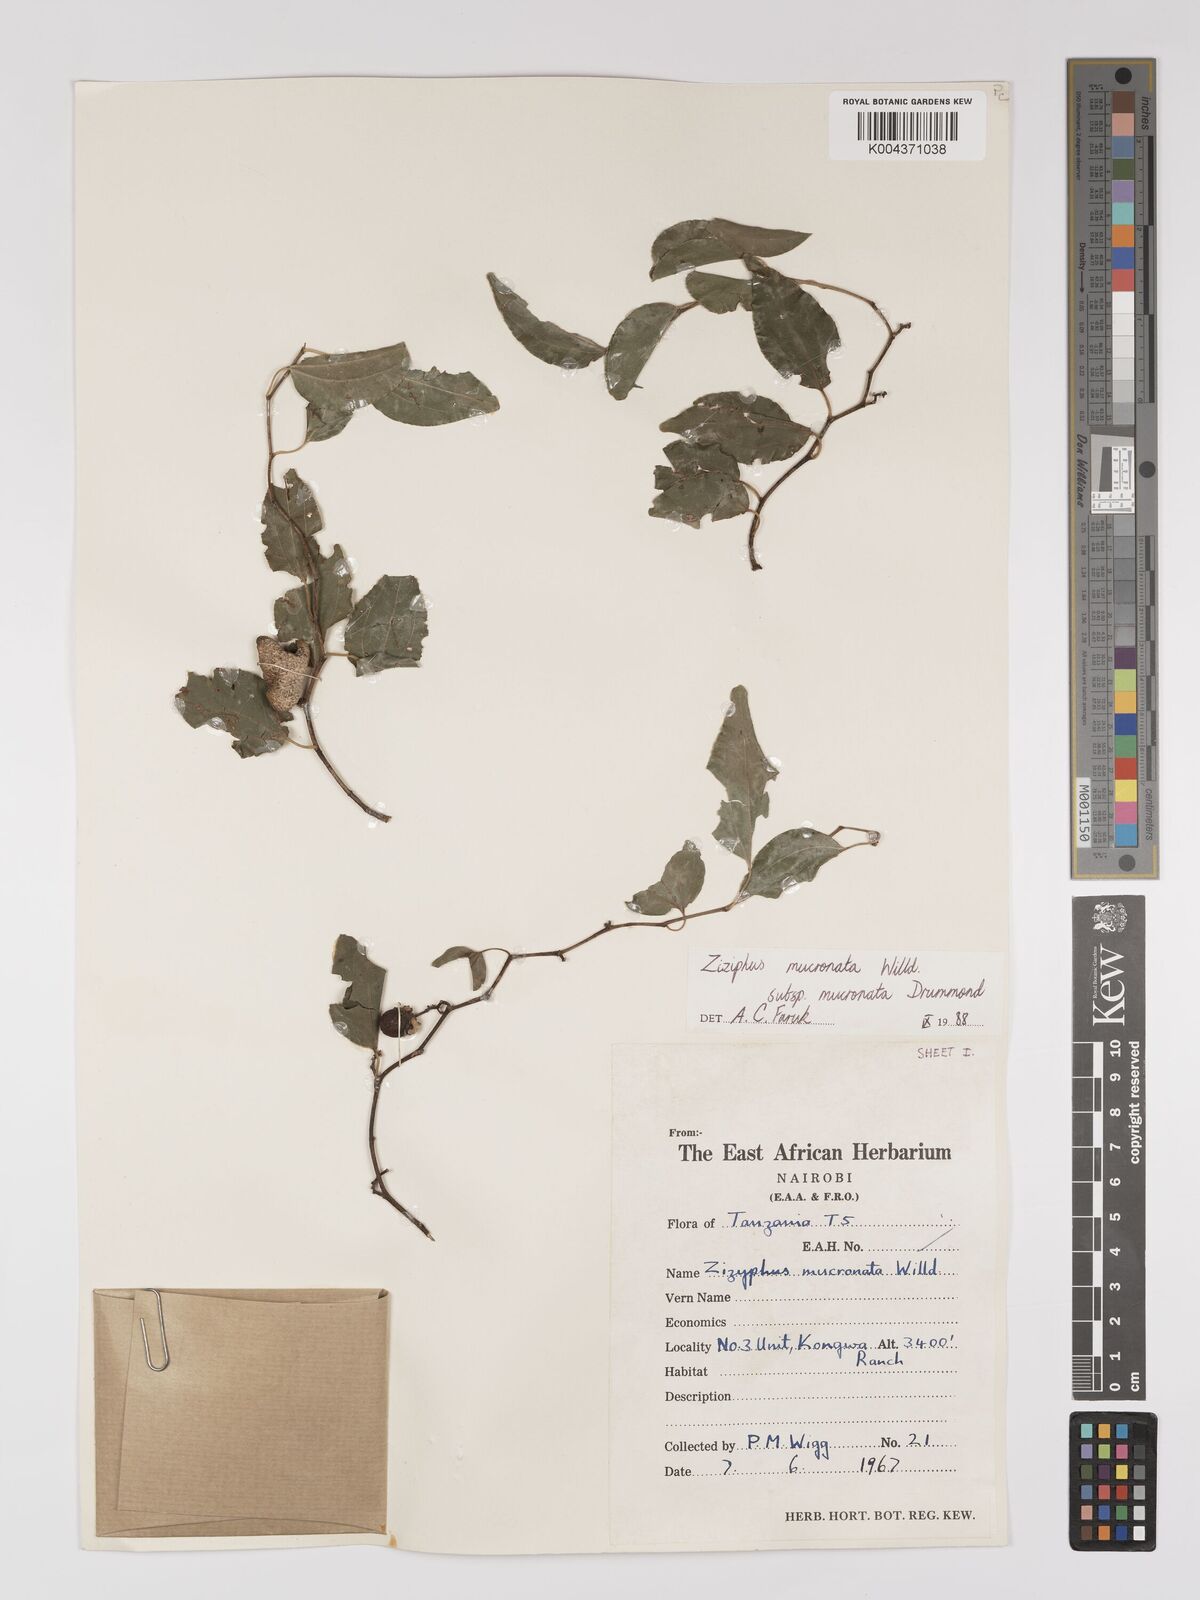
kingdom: Plantae
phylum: Tracheophyta
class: Magnoliopsida
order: Rosales
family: Rhamnaceae
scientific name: Rhamnaceae
